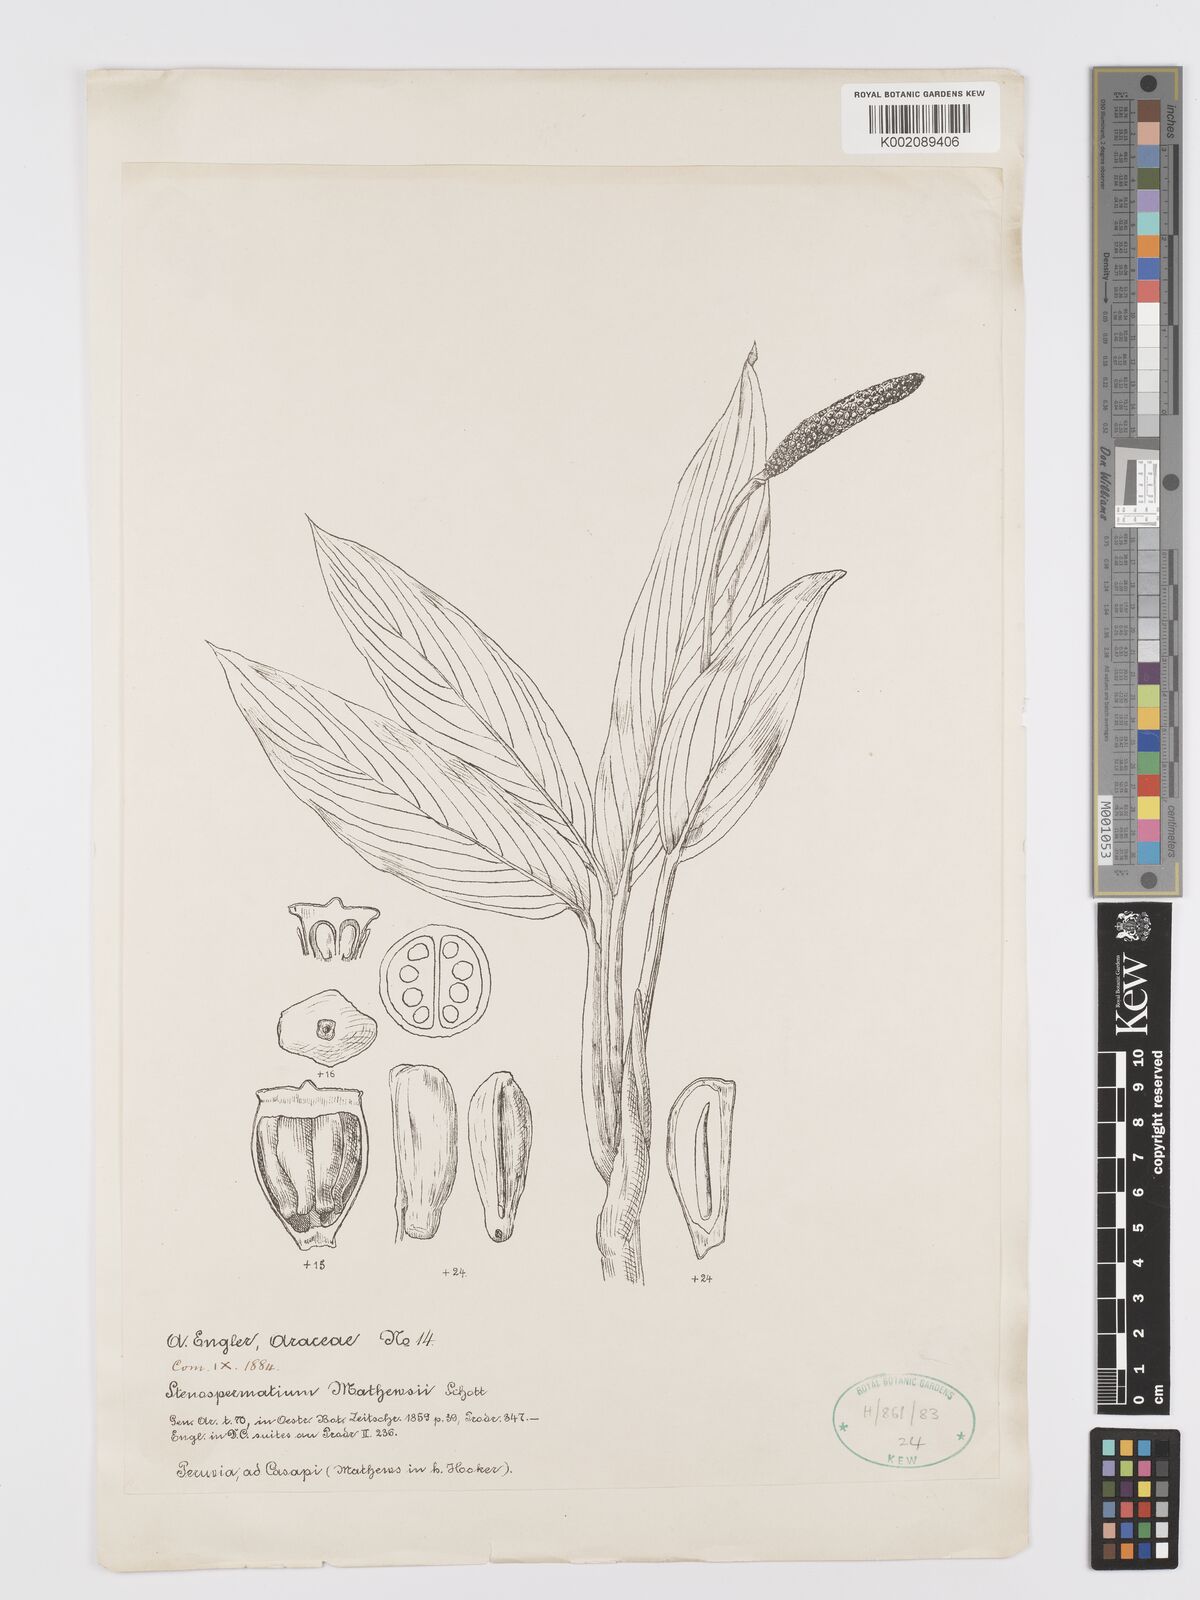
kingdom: Plantae
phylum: Tracheophyta
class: Liliopsida
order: Alismatales
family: Araceae
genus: Stenospermation
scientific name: Stenospermation mathewsii
